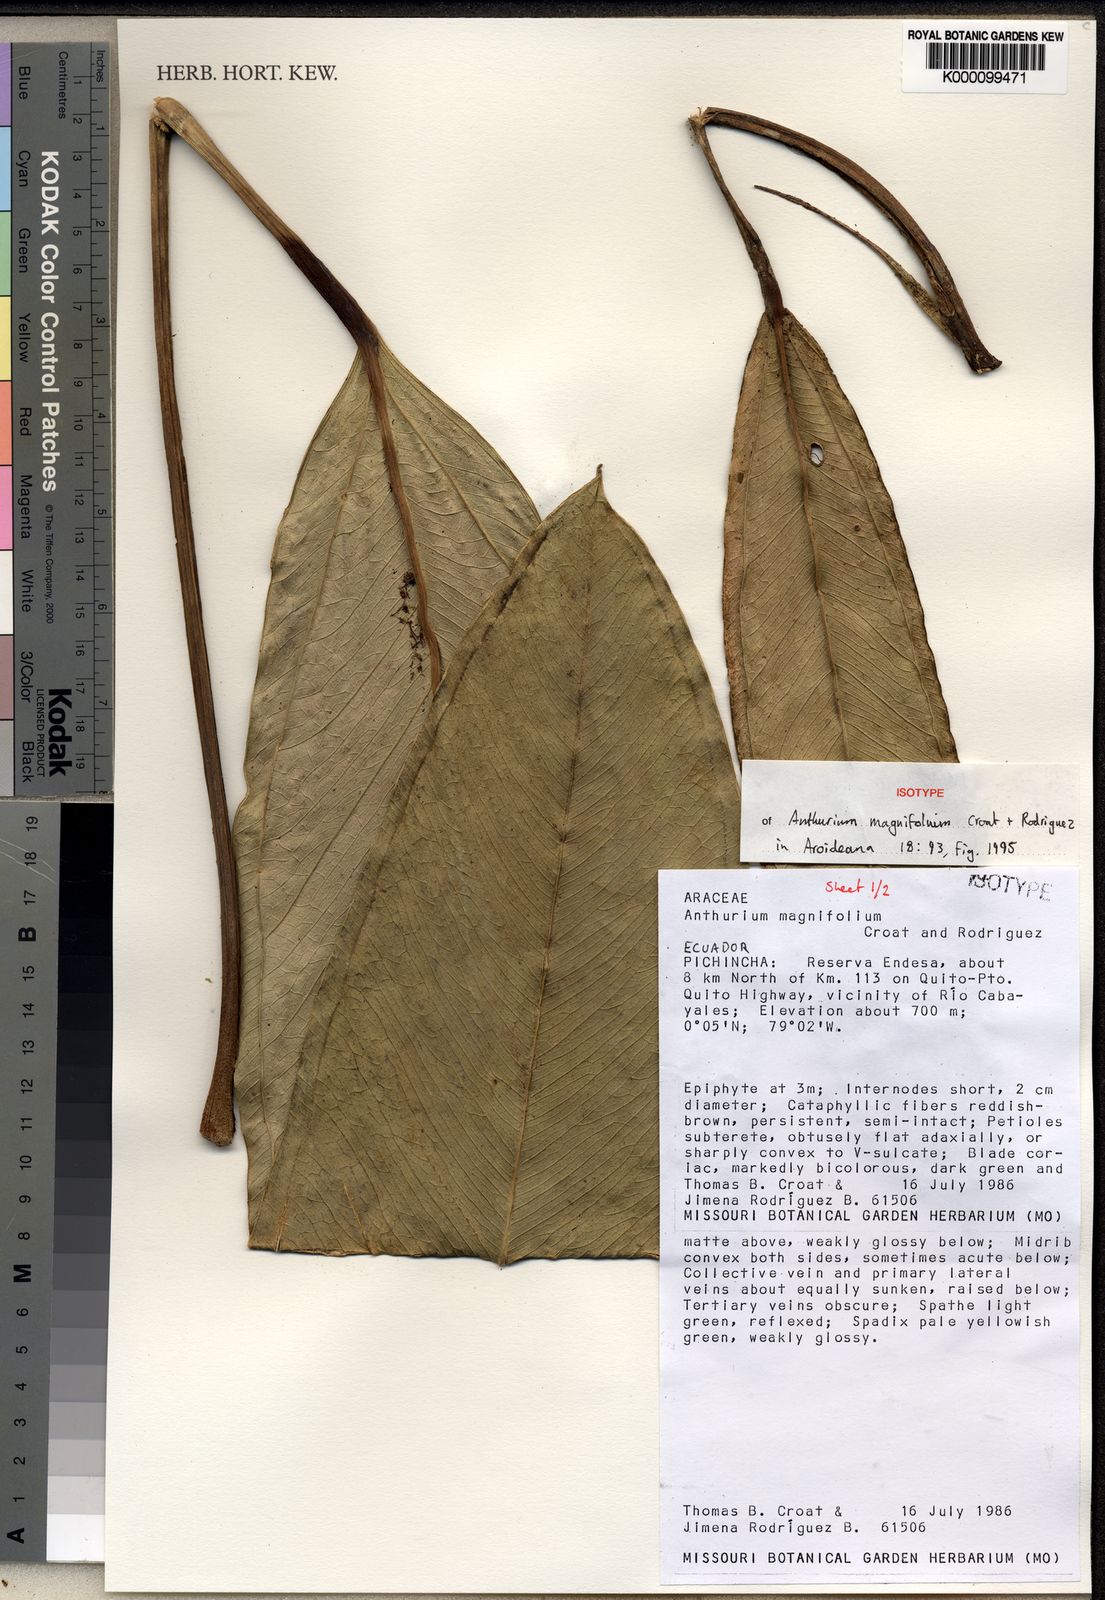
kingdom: Plantae
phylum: Tracheophyta
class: Liliopsida
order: Alismatales
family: Araceae
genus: Anthurium
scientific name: Anthurium magnifolium
